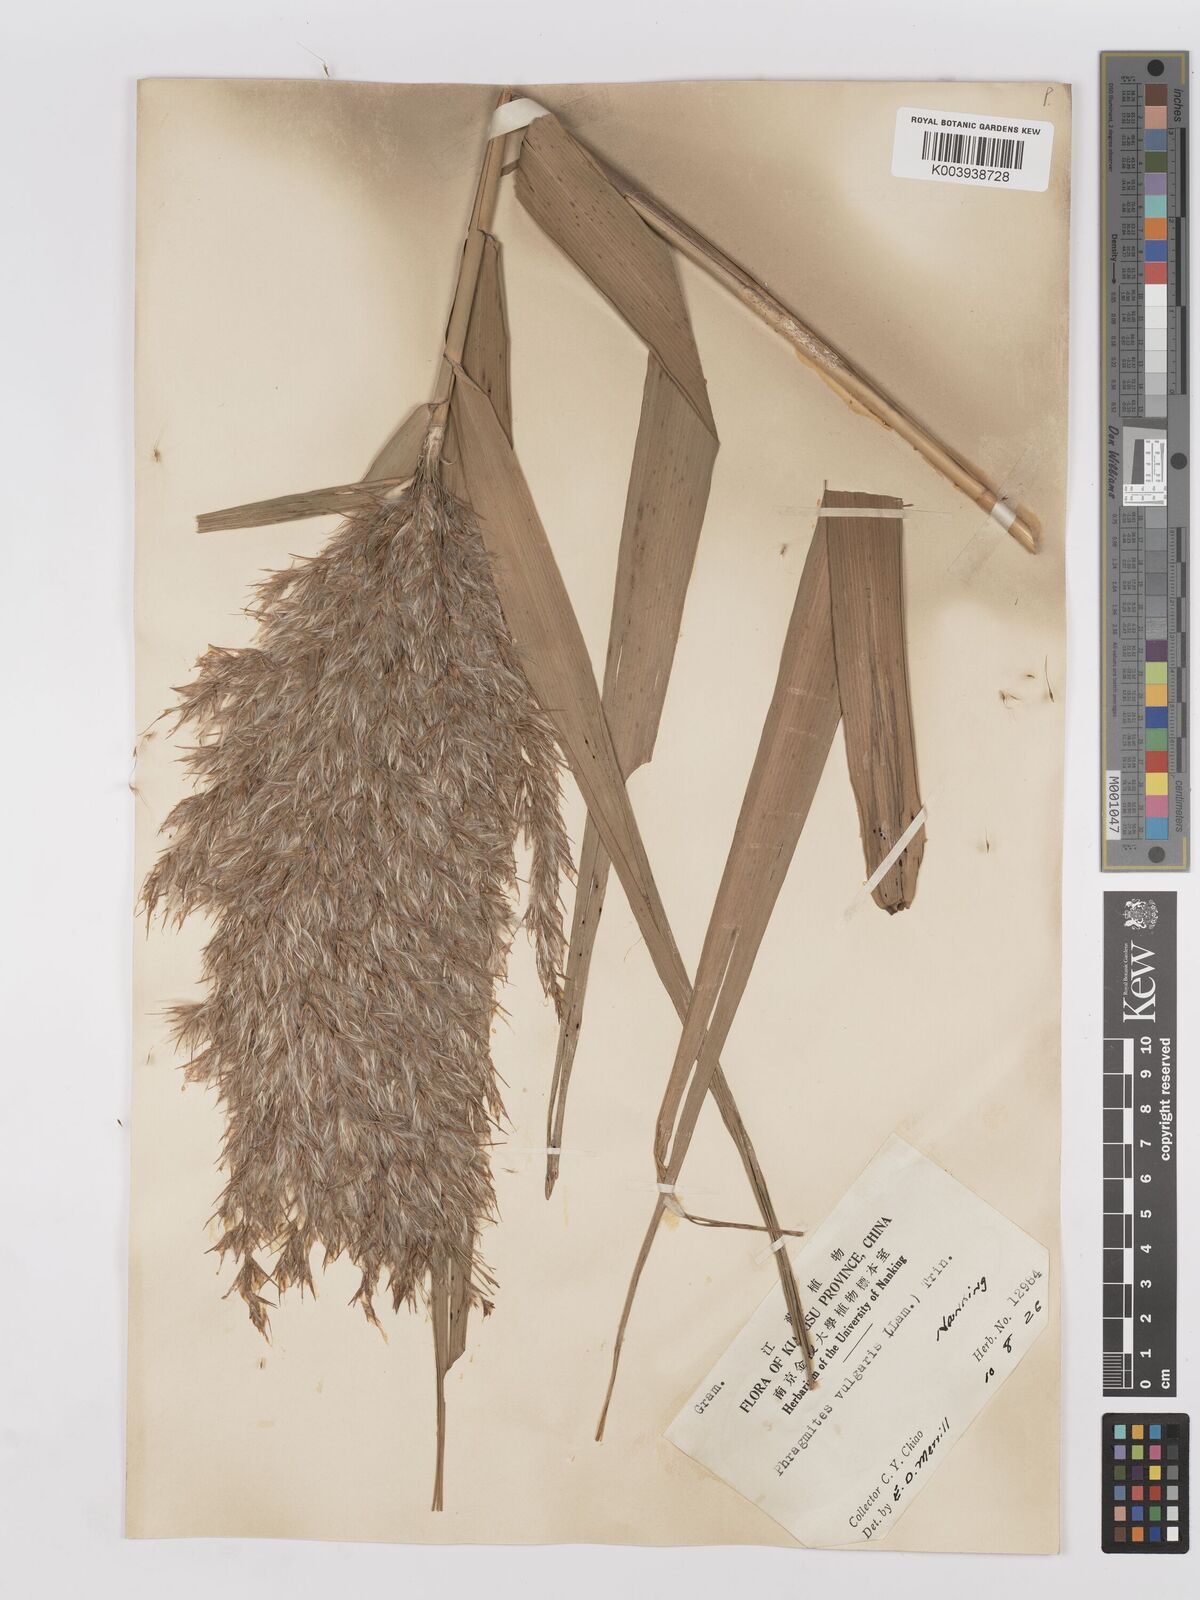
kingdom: Plantae
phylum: Tracheophyta
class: Liliopsida
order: Poales
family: Poaceae
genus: Phragmites
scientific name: Phragmites australis
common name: Common reed
